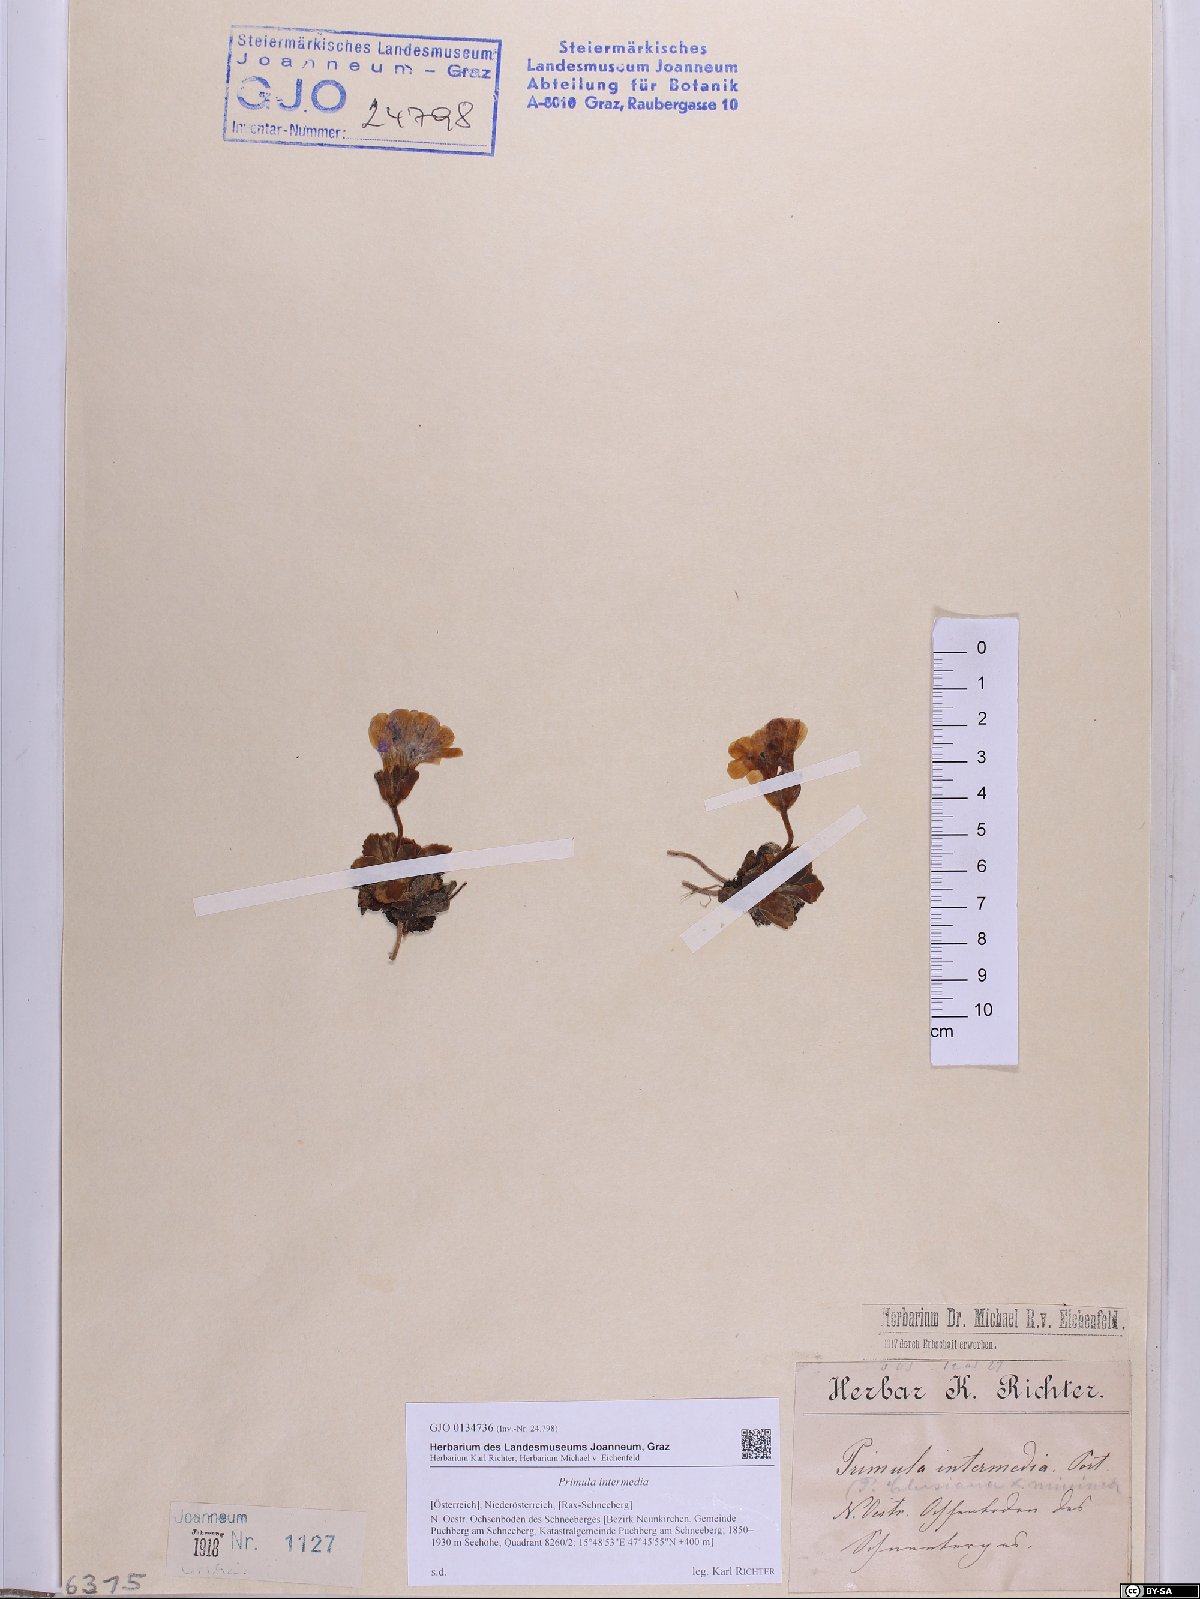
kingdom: Plantae
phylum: Tracheophyta
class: Magnoliopsida
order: Ericales
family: Primulaceae
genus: Primula
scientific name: Primula wettsteinii
